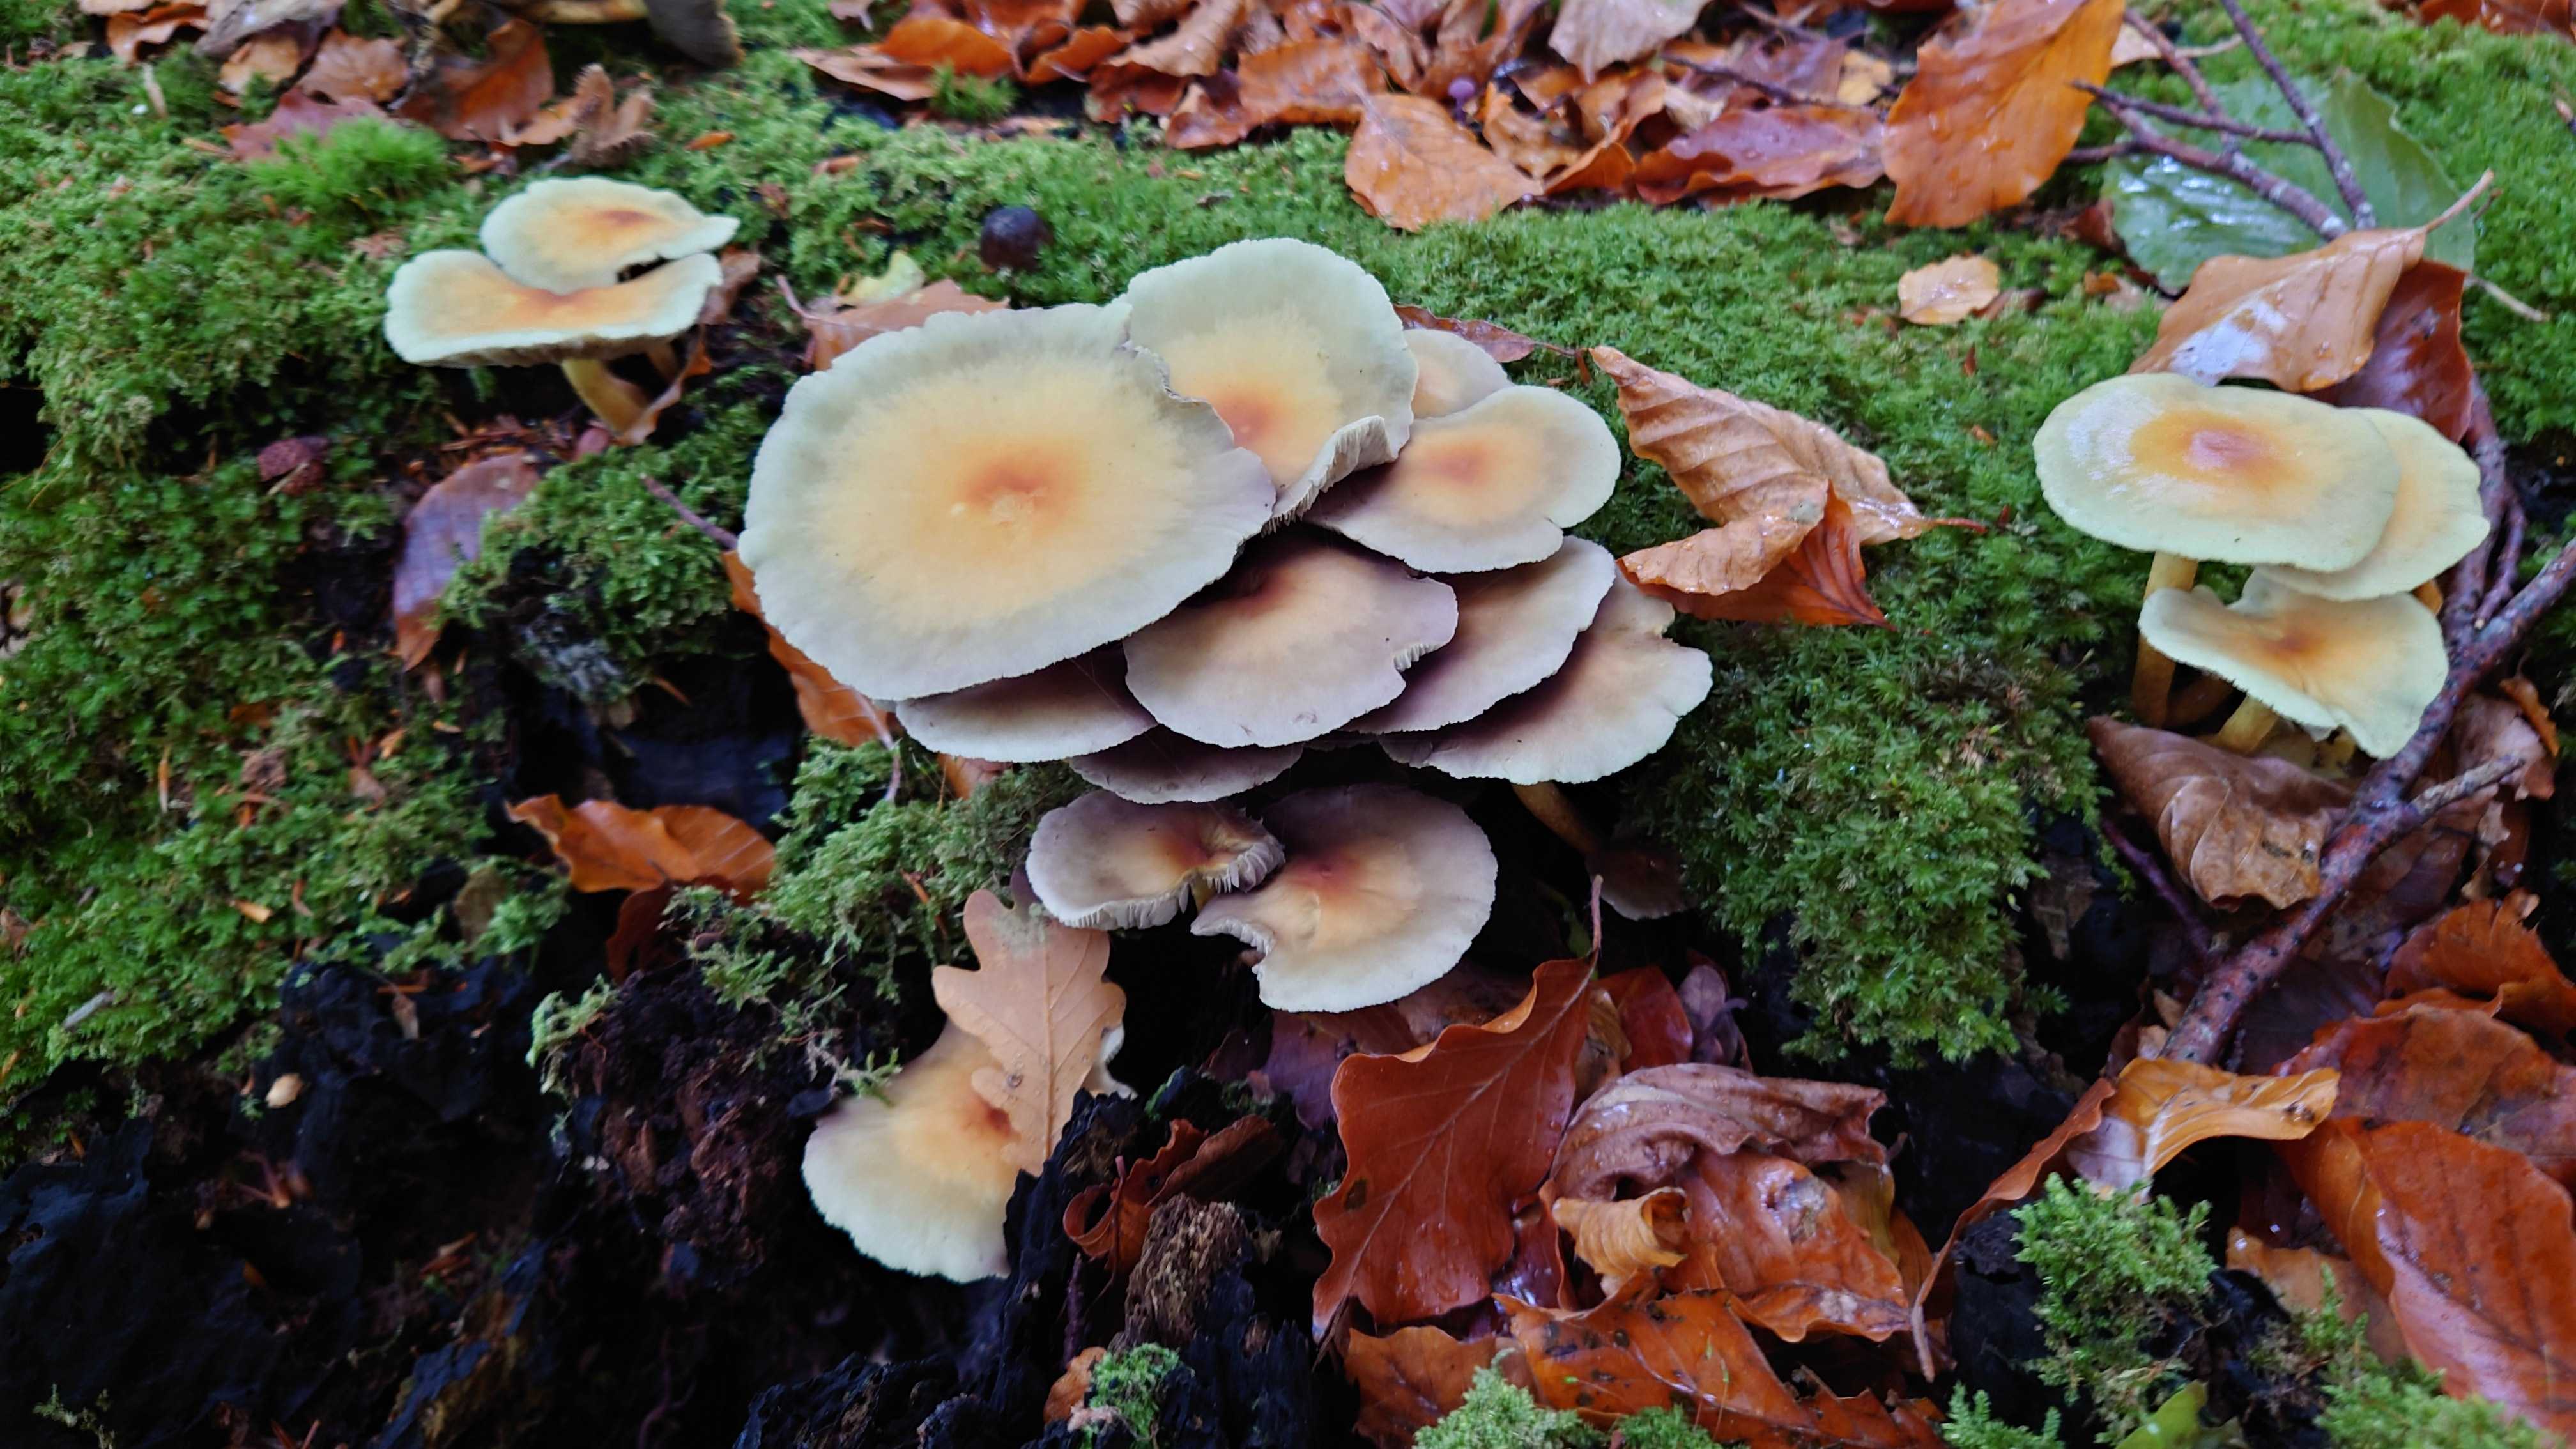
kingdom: Fungi
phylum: Basidiomycota
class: Agaricomycetes
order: Agaricales
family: Strophariaceae
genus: Hypholoma
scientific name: Hypholoma fasciculare
